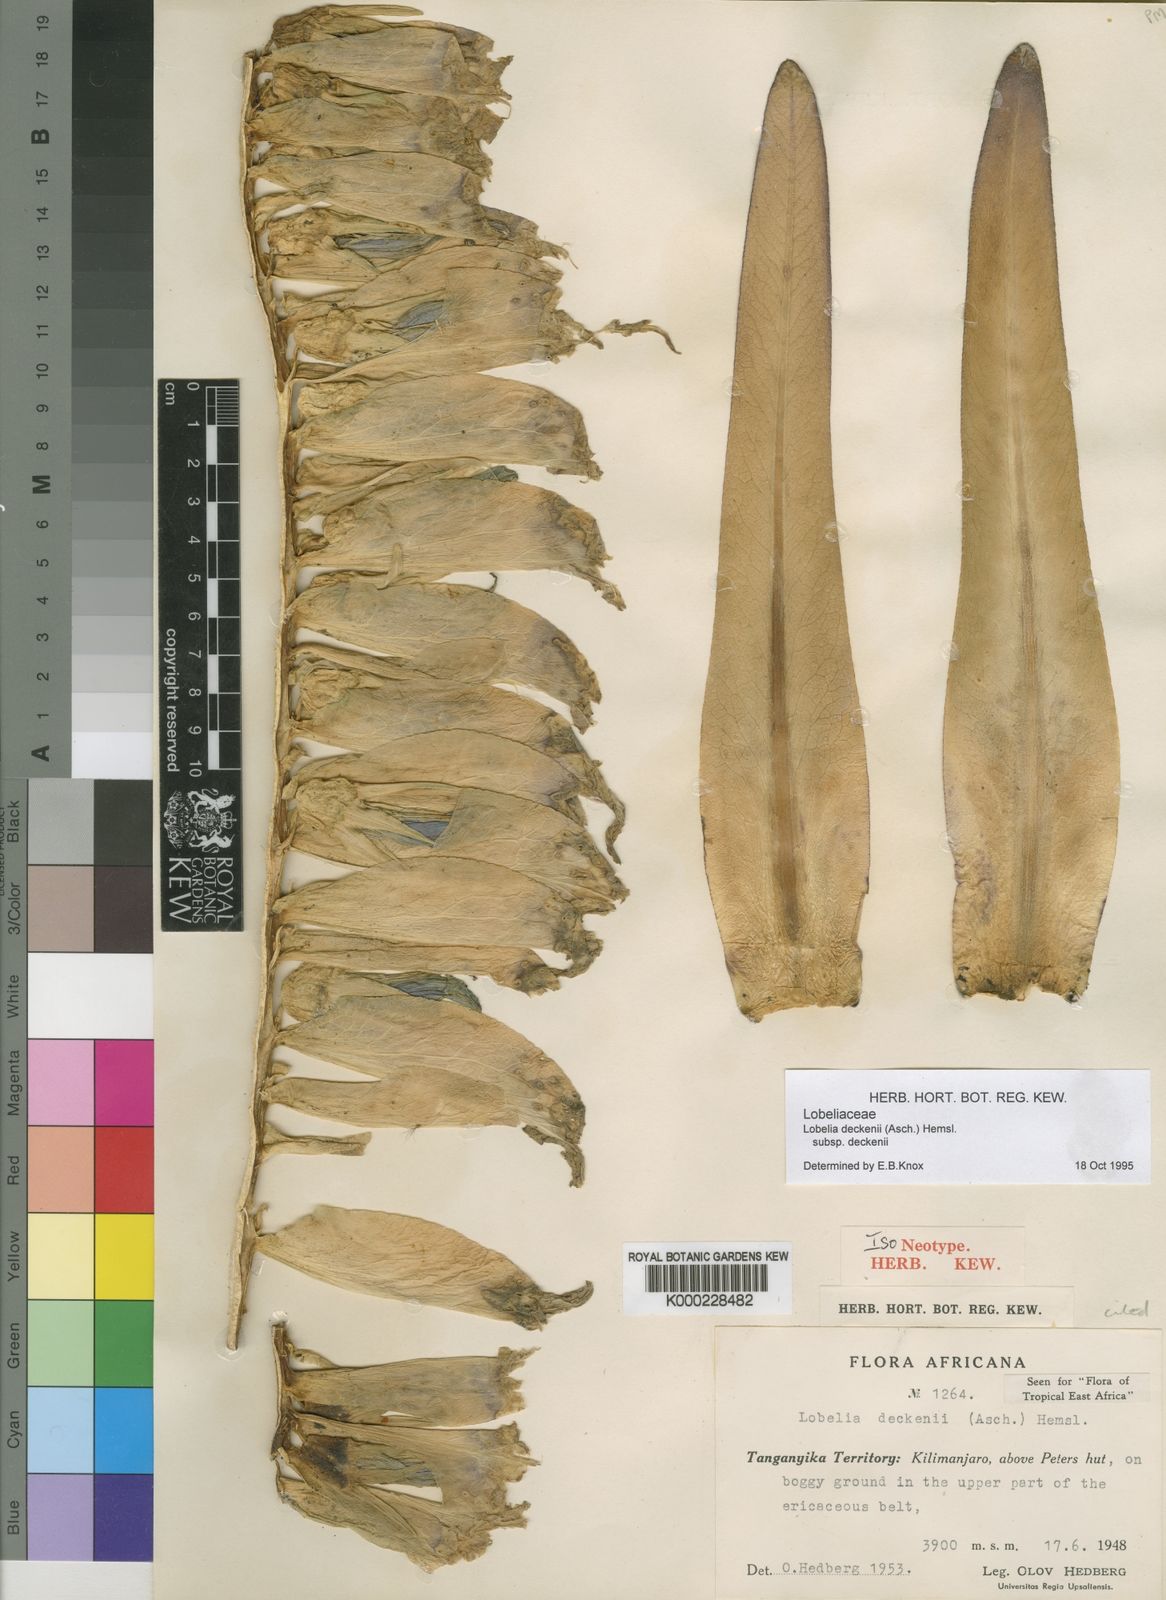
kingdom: Plantae
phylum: Tracheophyta
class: Magnoliopsida
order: Asterales
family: Campanulaceae
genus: Lobelia
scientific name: Lobelia deckenii
